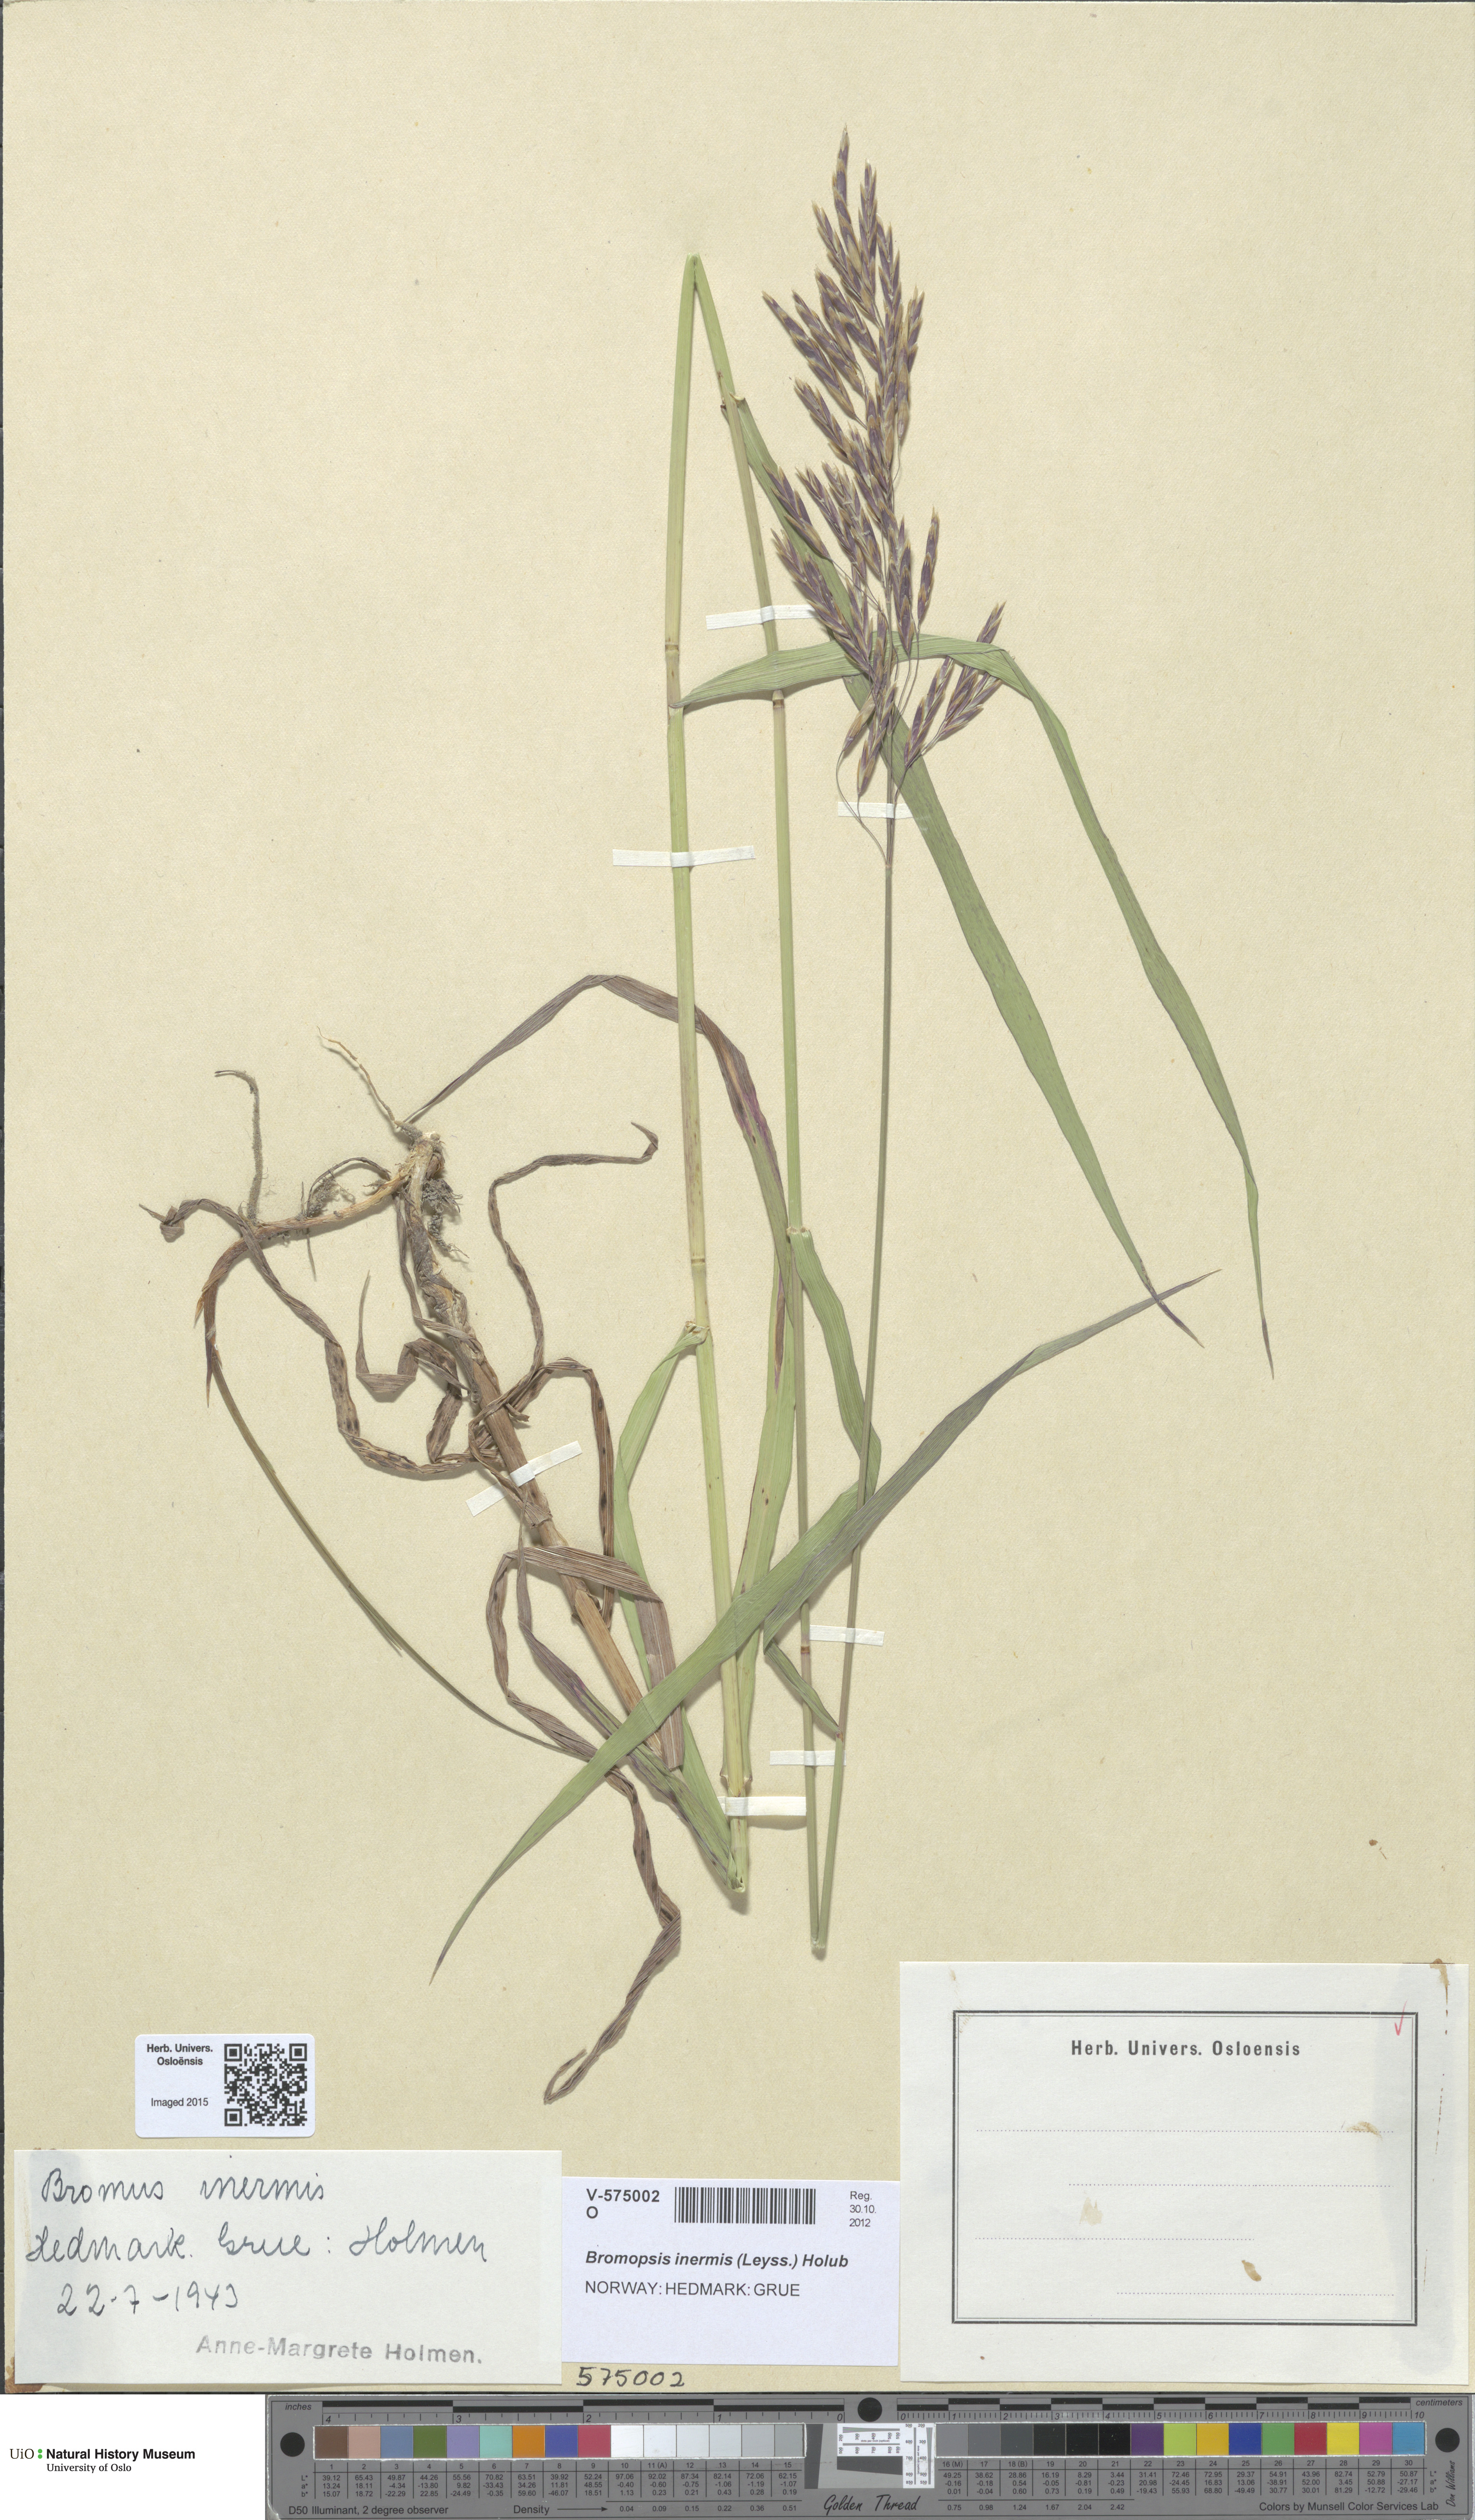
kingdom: Plantae
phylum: Tracheophyta
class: Liliopsida
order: Poales
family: Poaceae
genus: Bromus
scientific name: Bromus inermis
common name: Smooth brome
